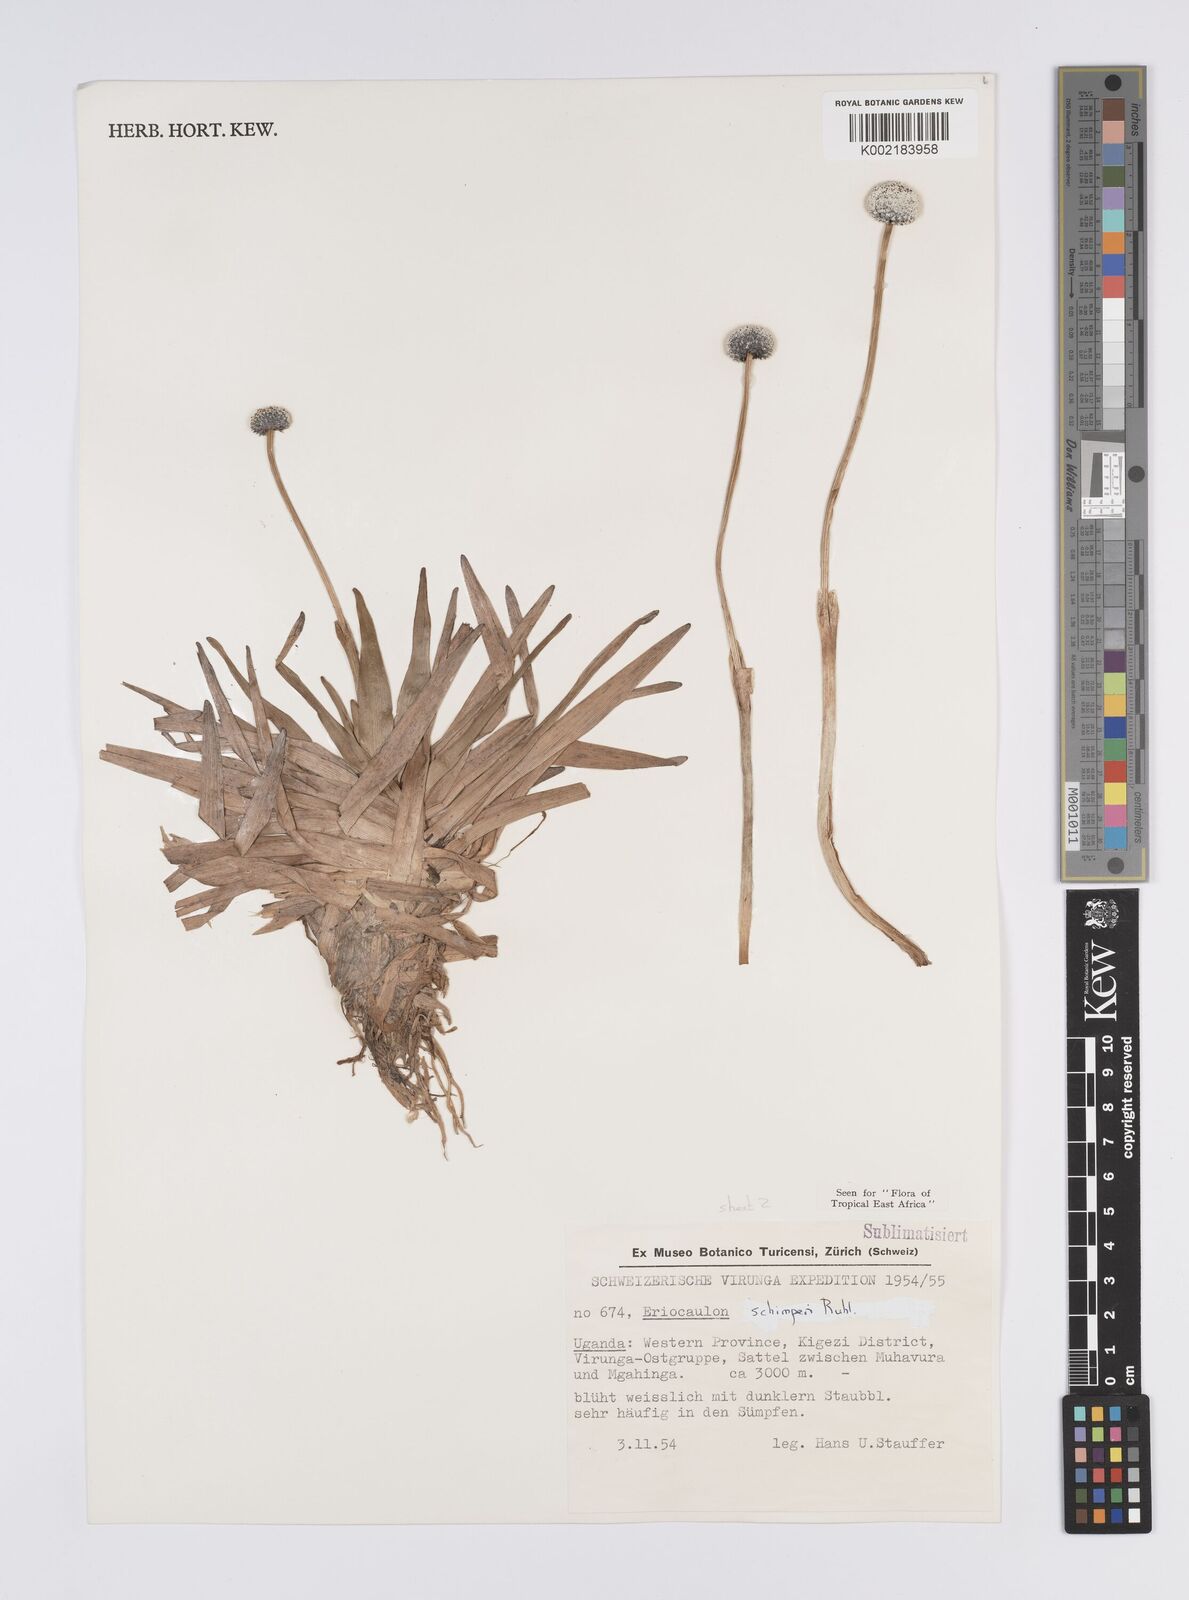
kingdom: Plantae
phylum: Tracheophyta
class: Liliopsida
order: Poales
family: Eriocaulaceae
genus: Eriocaulon
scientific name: Eriocaulon schimperi
